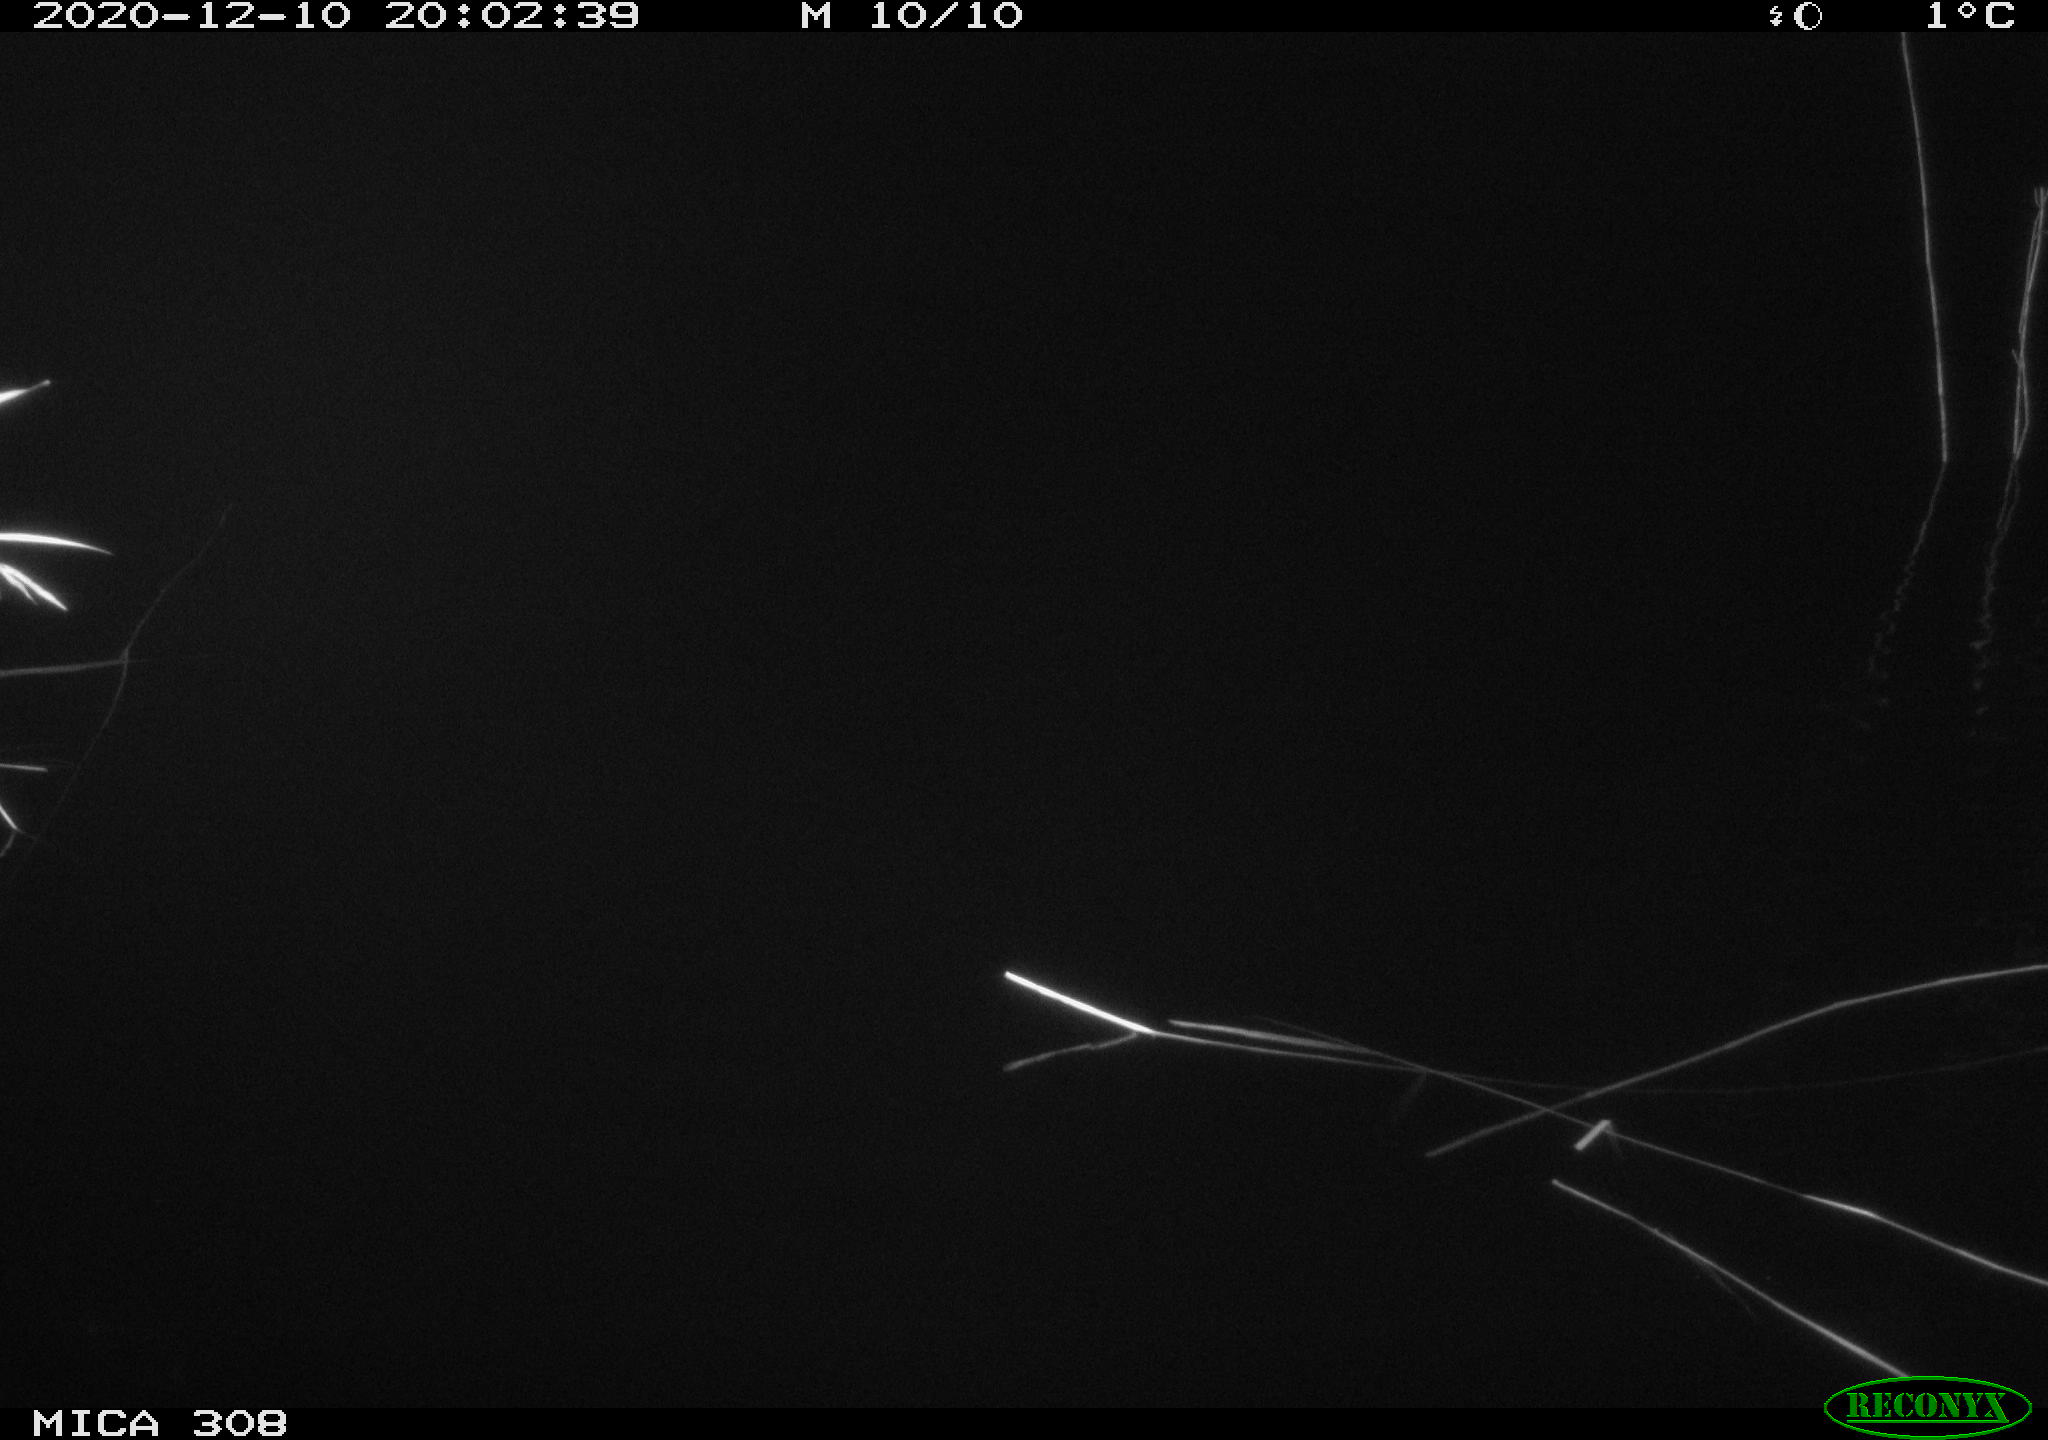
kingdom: Animalia
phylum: Chordata
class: Aves
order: Anseriformes
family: Anatidae
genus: Anas
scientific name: Anas platyrhynchos
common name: Mallard
